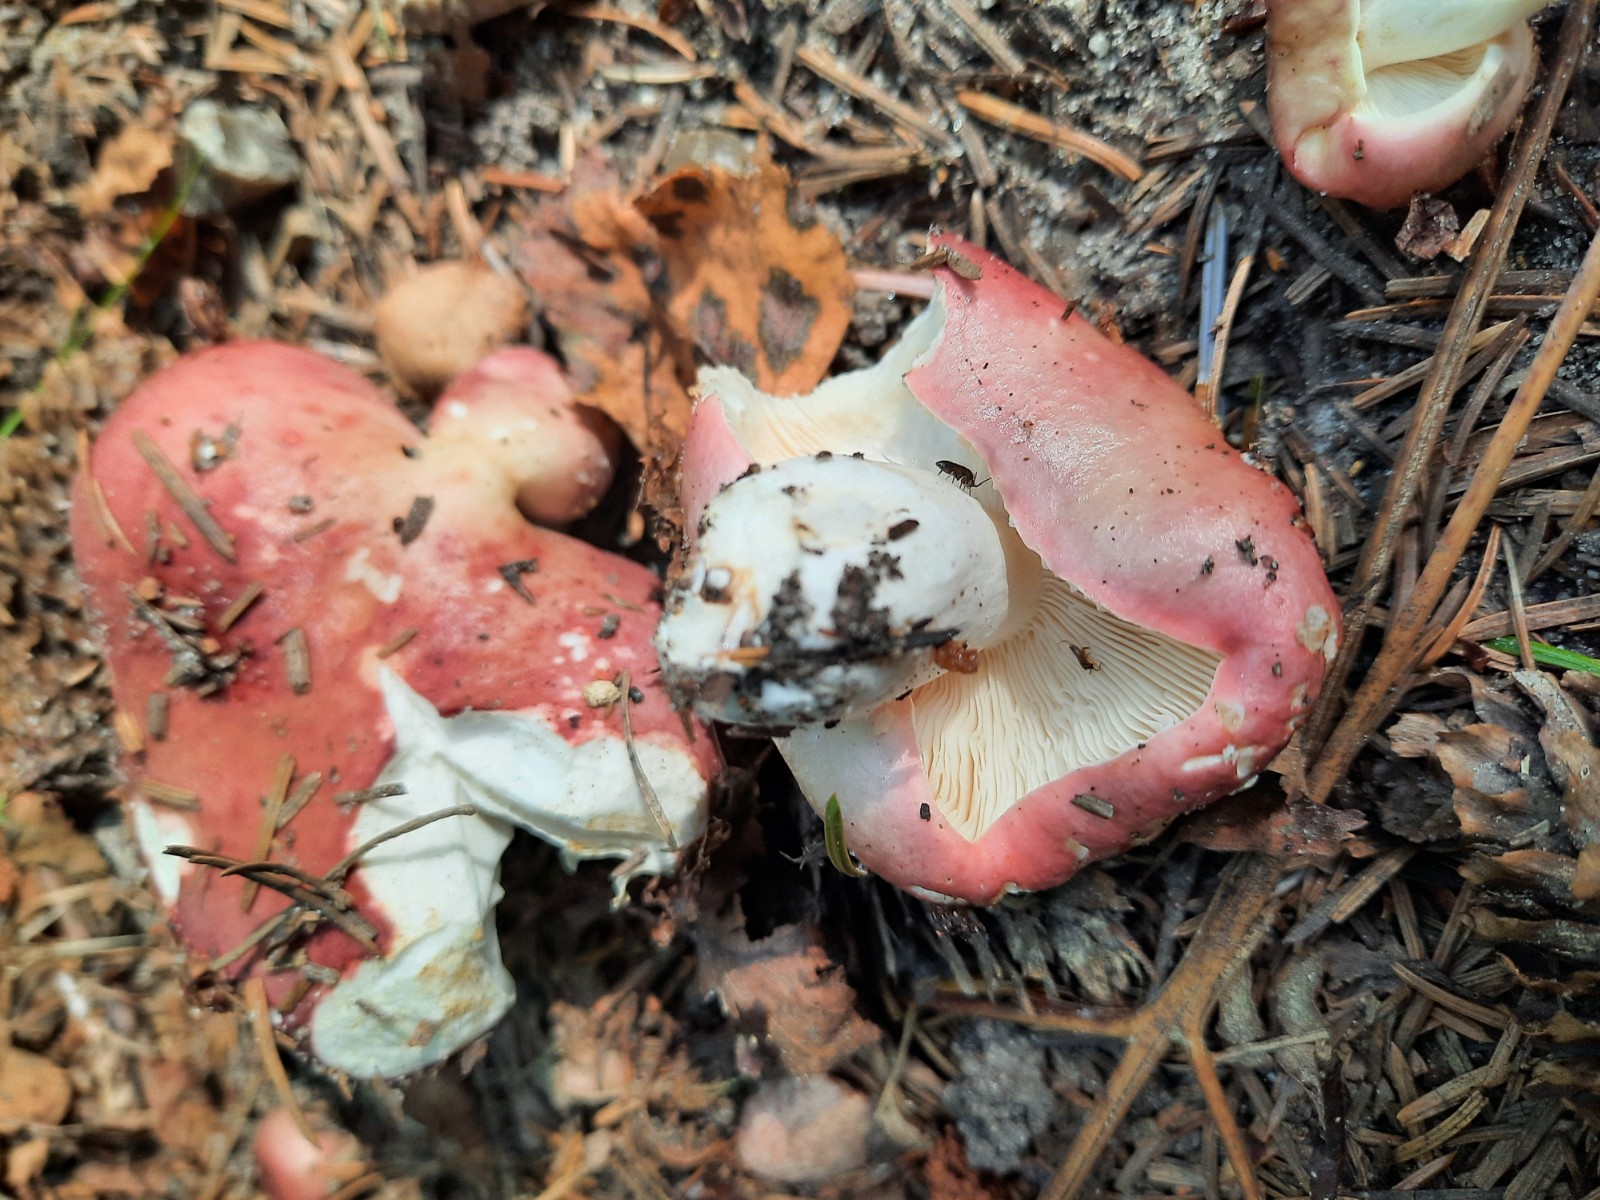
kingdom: Fungi
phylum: Basidiomycota
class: Agaricomycetes
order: Russulales
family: Russulaceae
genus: Russula
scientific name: Russula depallens
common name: falmende skørhat
